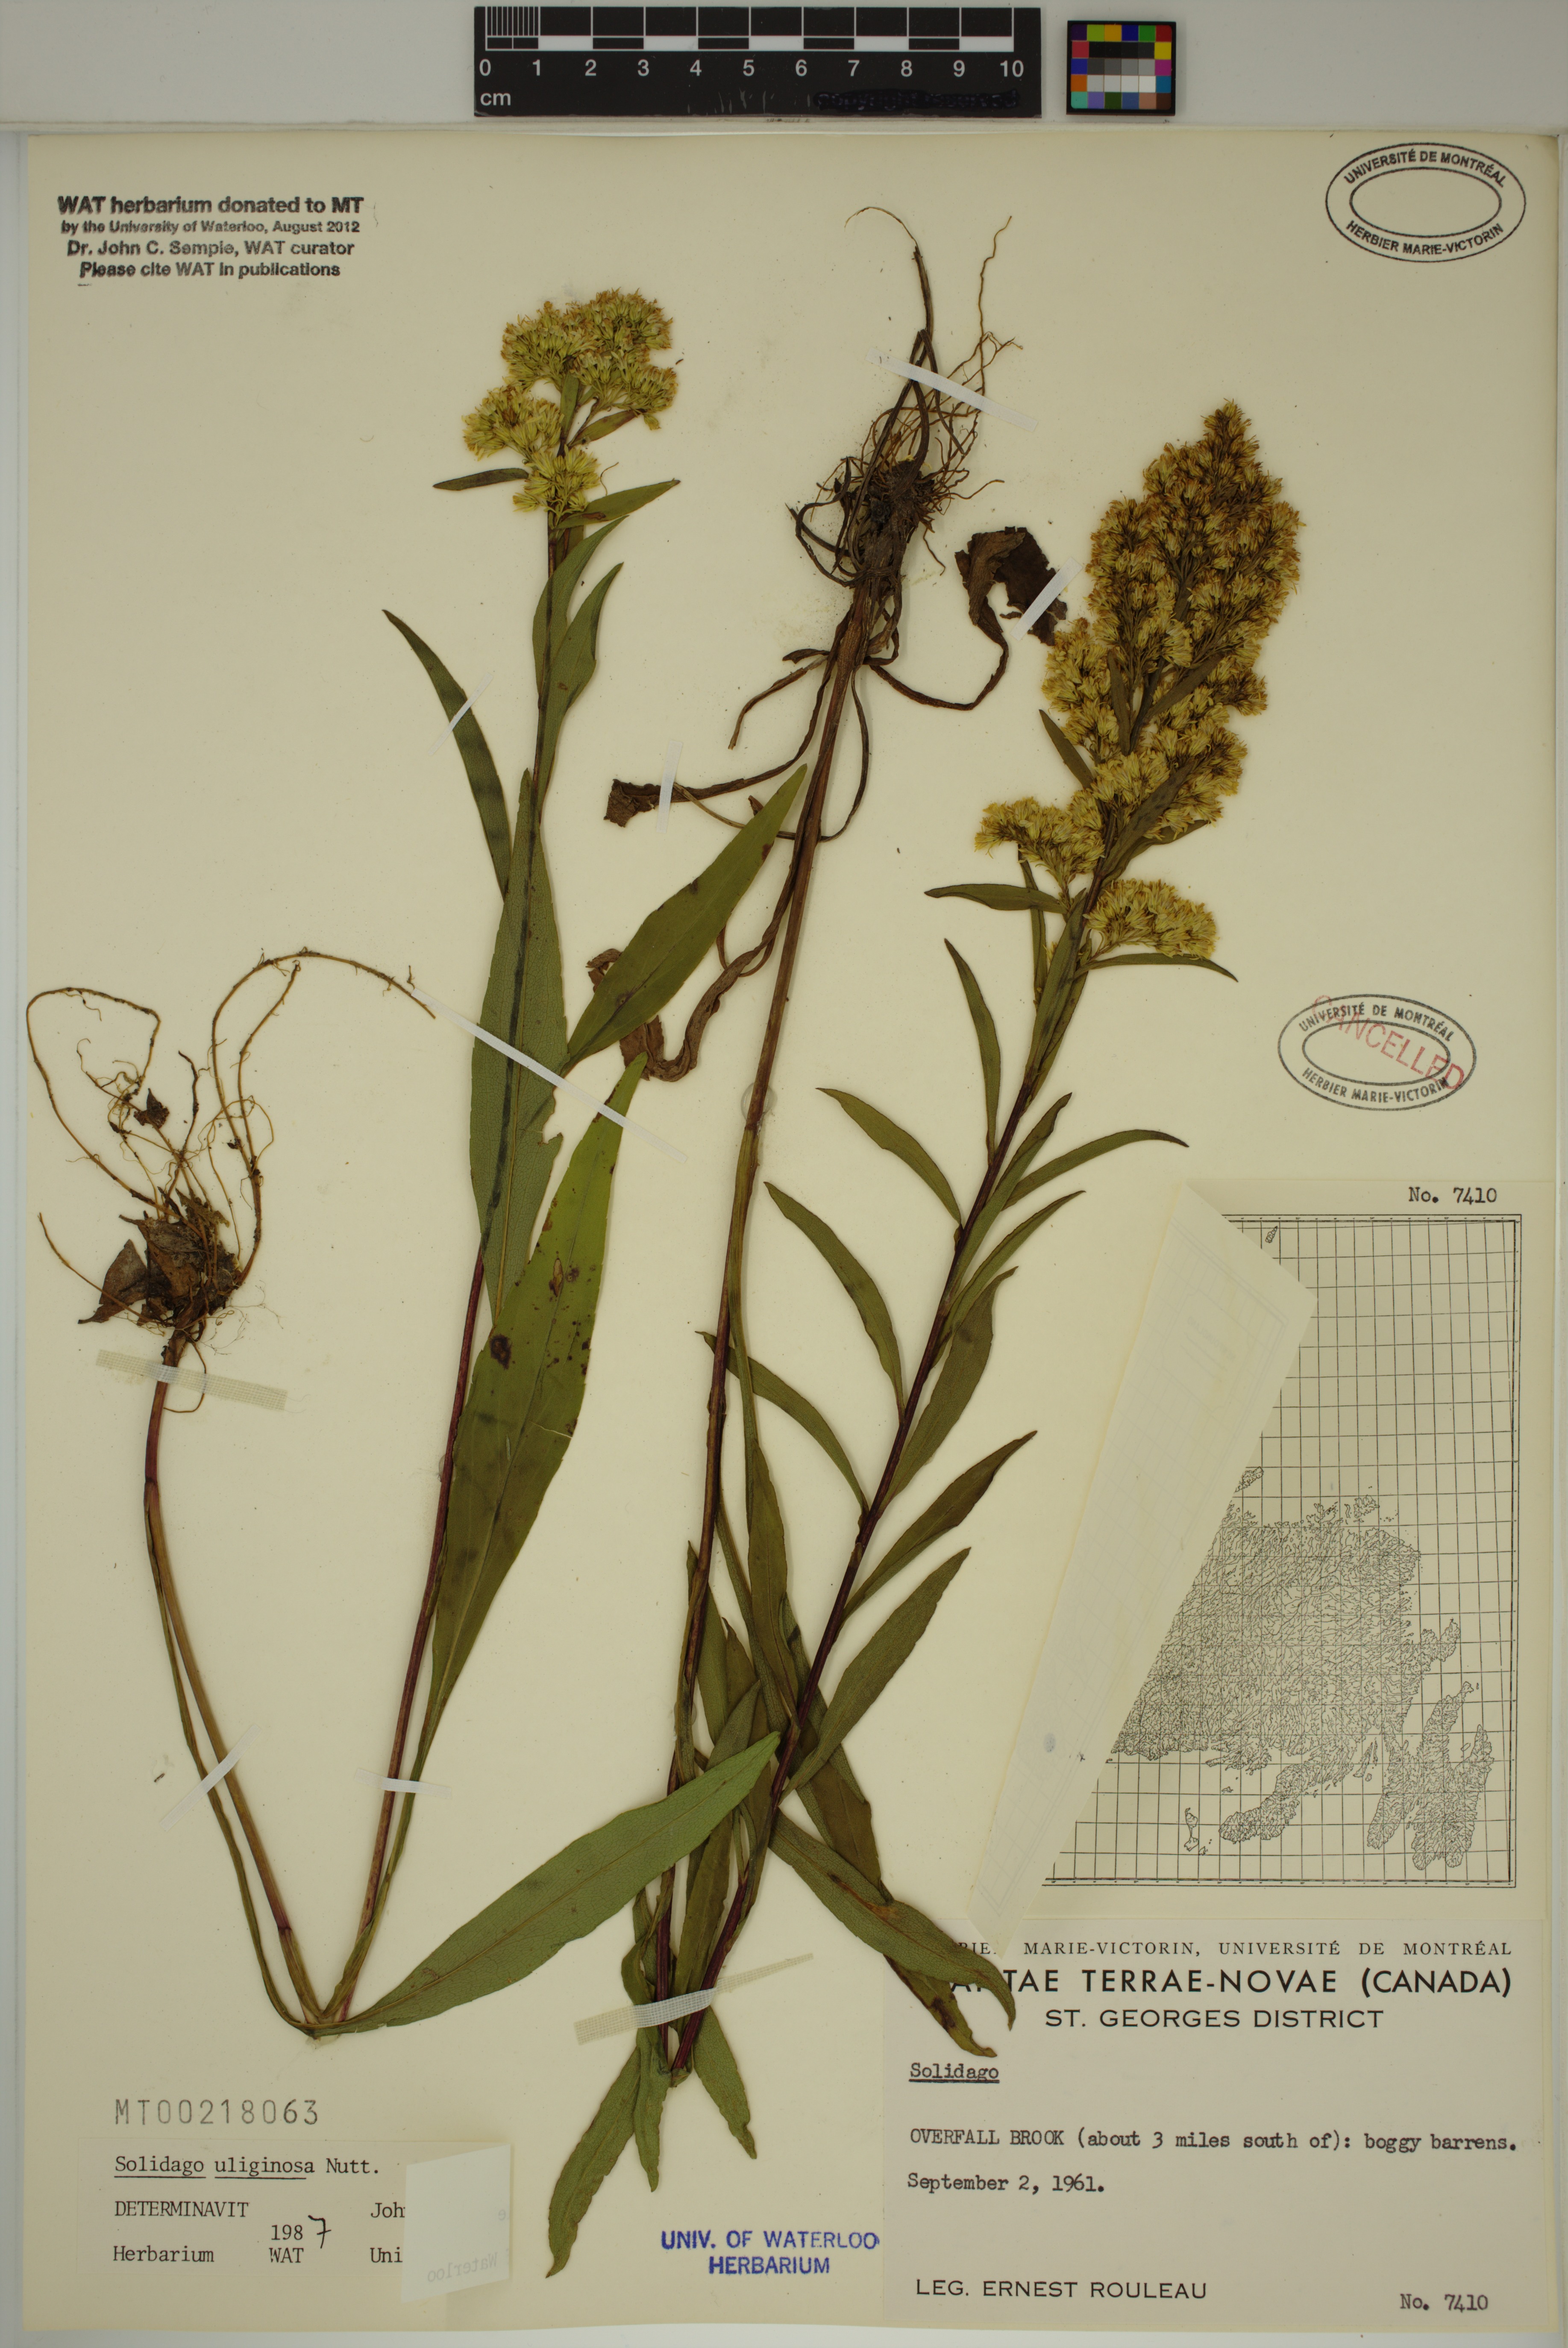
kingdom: Plantae
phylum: Tracheophyta
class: Magnoliopsida
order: Asterales
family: Asteraceae
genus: Solidago
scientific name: Solidago uliginosa
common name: Bog goldenrod
